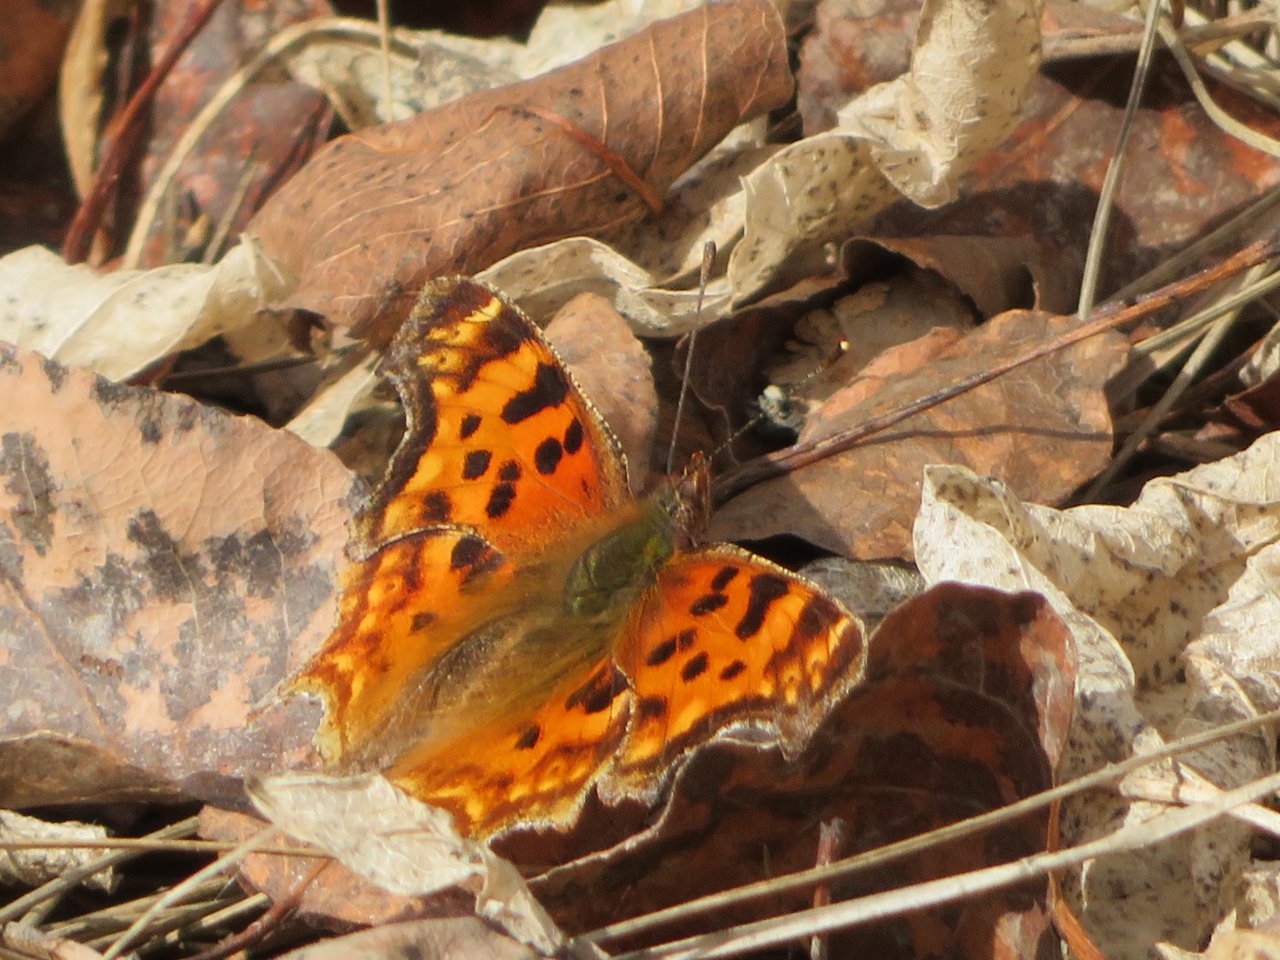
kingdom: Animalia
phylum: Arthropoda
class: Insecta
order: Lepidoptera
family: Nymphalidae
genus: Polygonia
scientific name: Polygonia satyrus
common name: Satyr Comma
